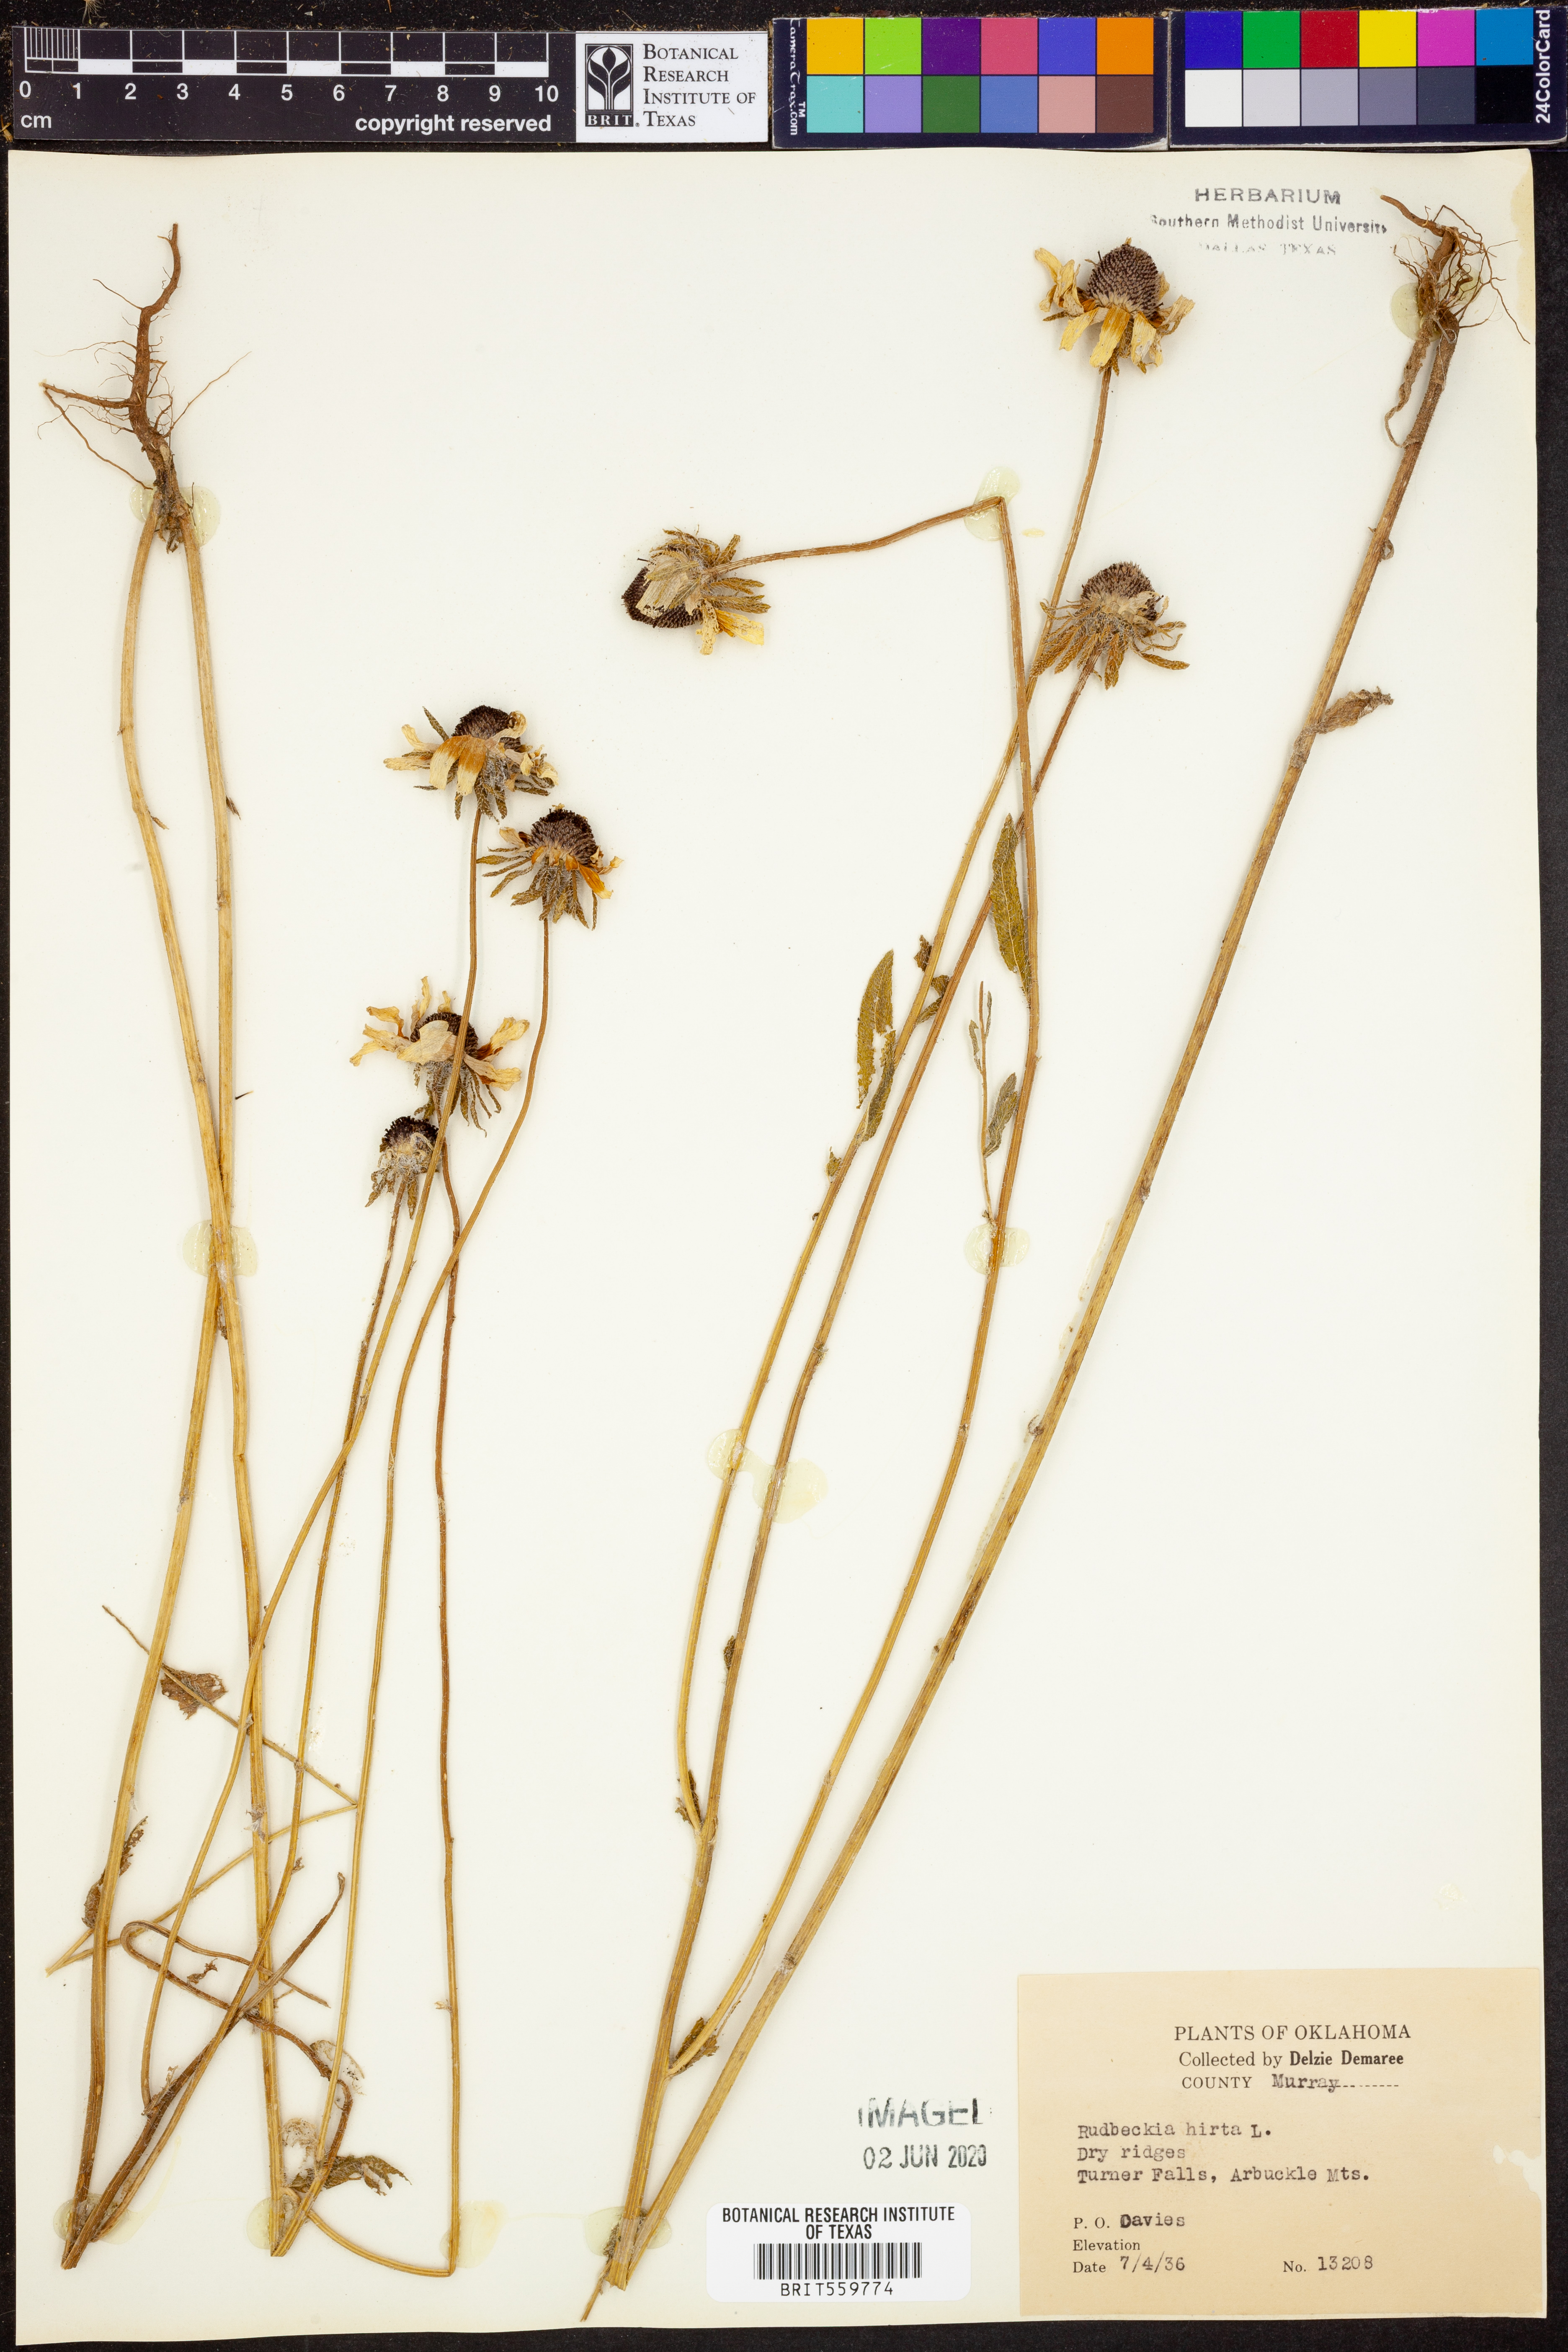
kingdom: Plantae
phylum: Tracheophyta
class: Magnoliopsida
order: Asterales
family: Asteraceae
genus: Rudbeckia
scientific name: Rudbeckia hirta
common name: Black-eyed-susan
